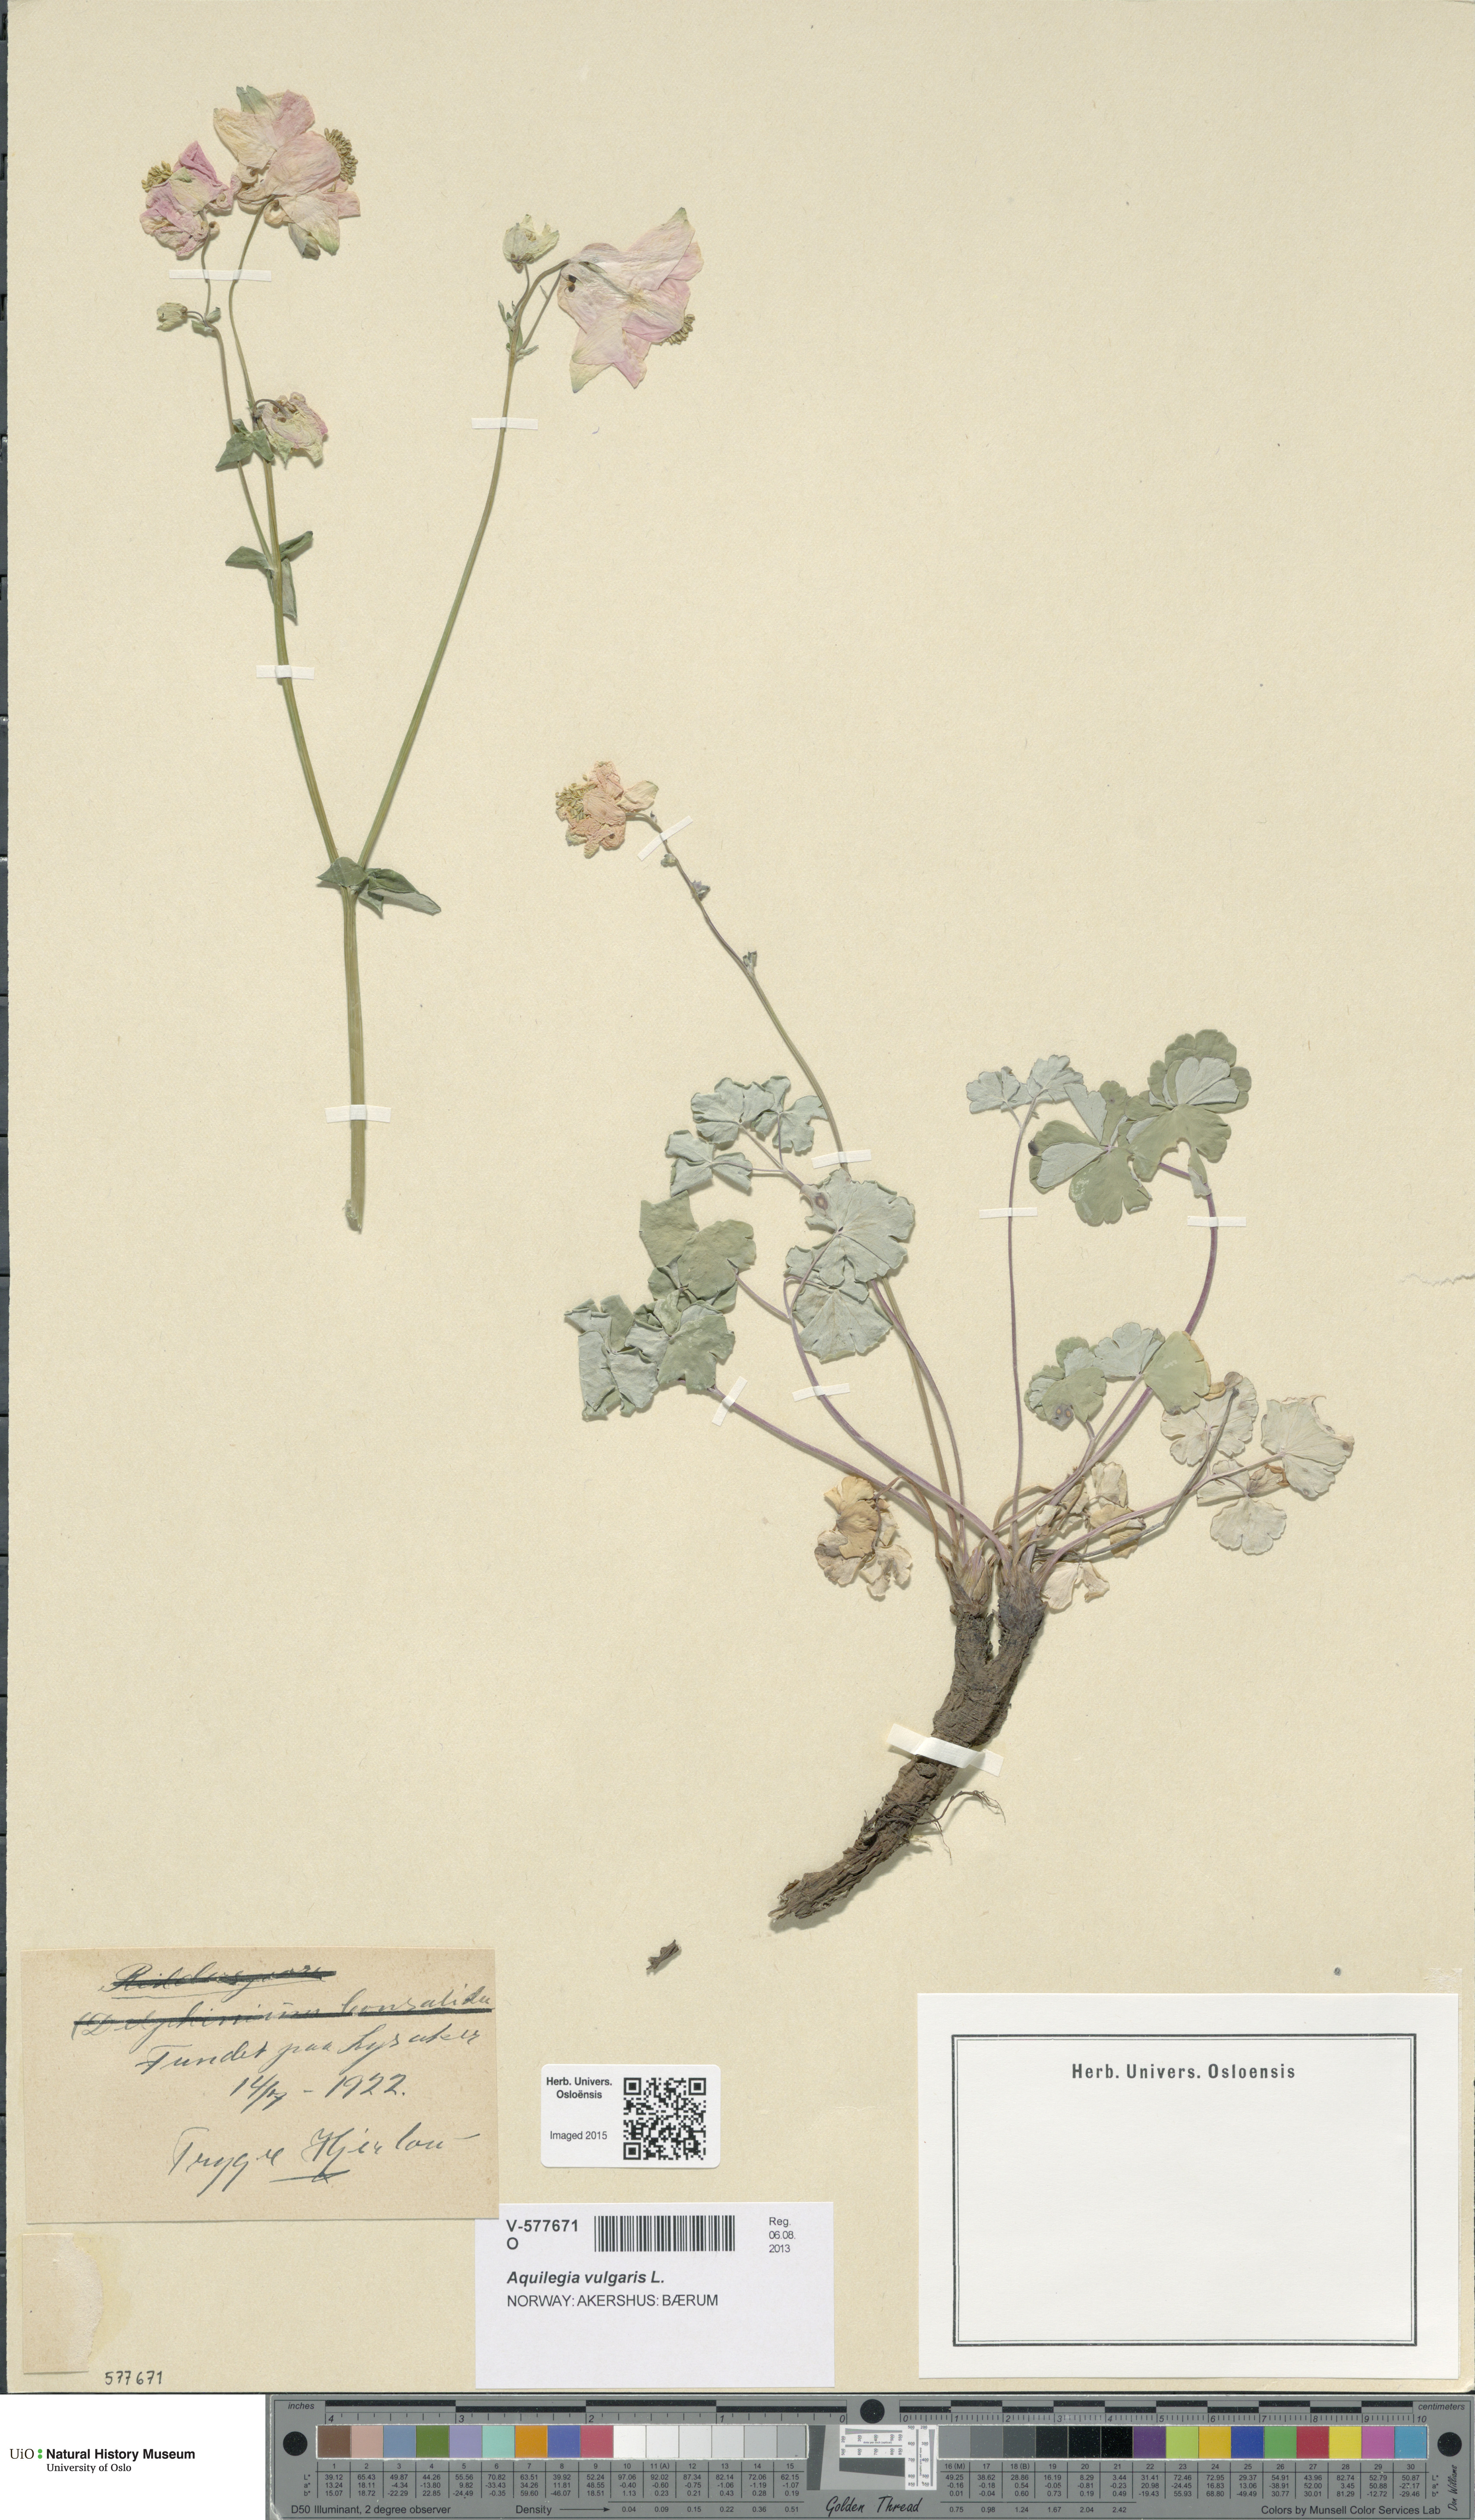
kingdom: Plantae
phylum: Tracheophyta
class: Magnoliopsida
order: Ranunculales
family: Ranunculaceae
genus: Aquilegia
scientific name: Aquilegia vulgaris
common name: Columbine
